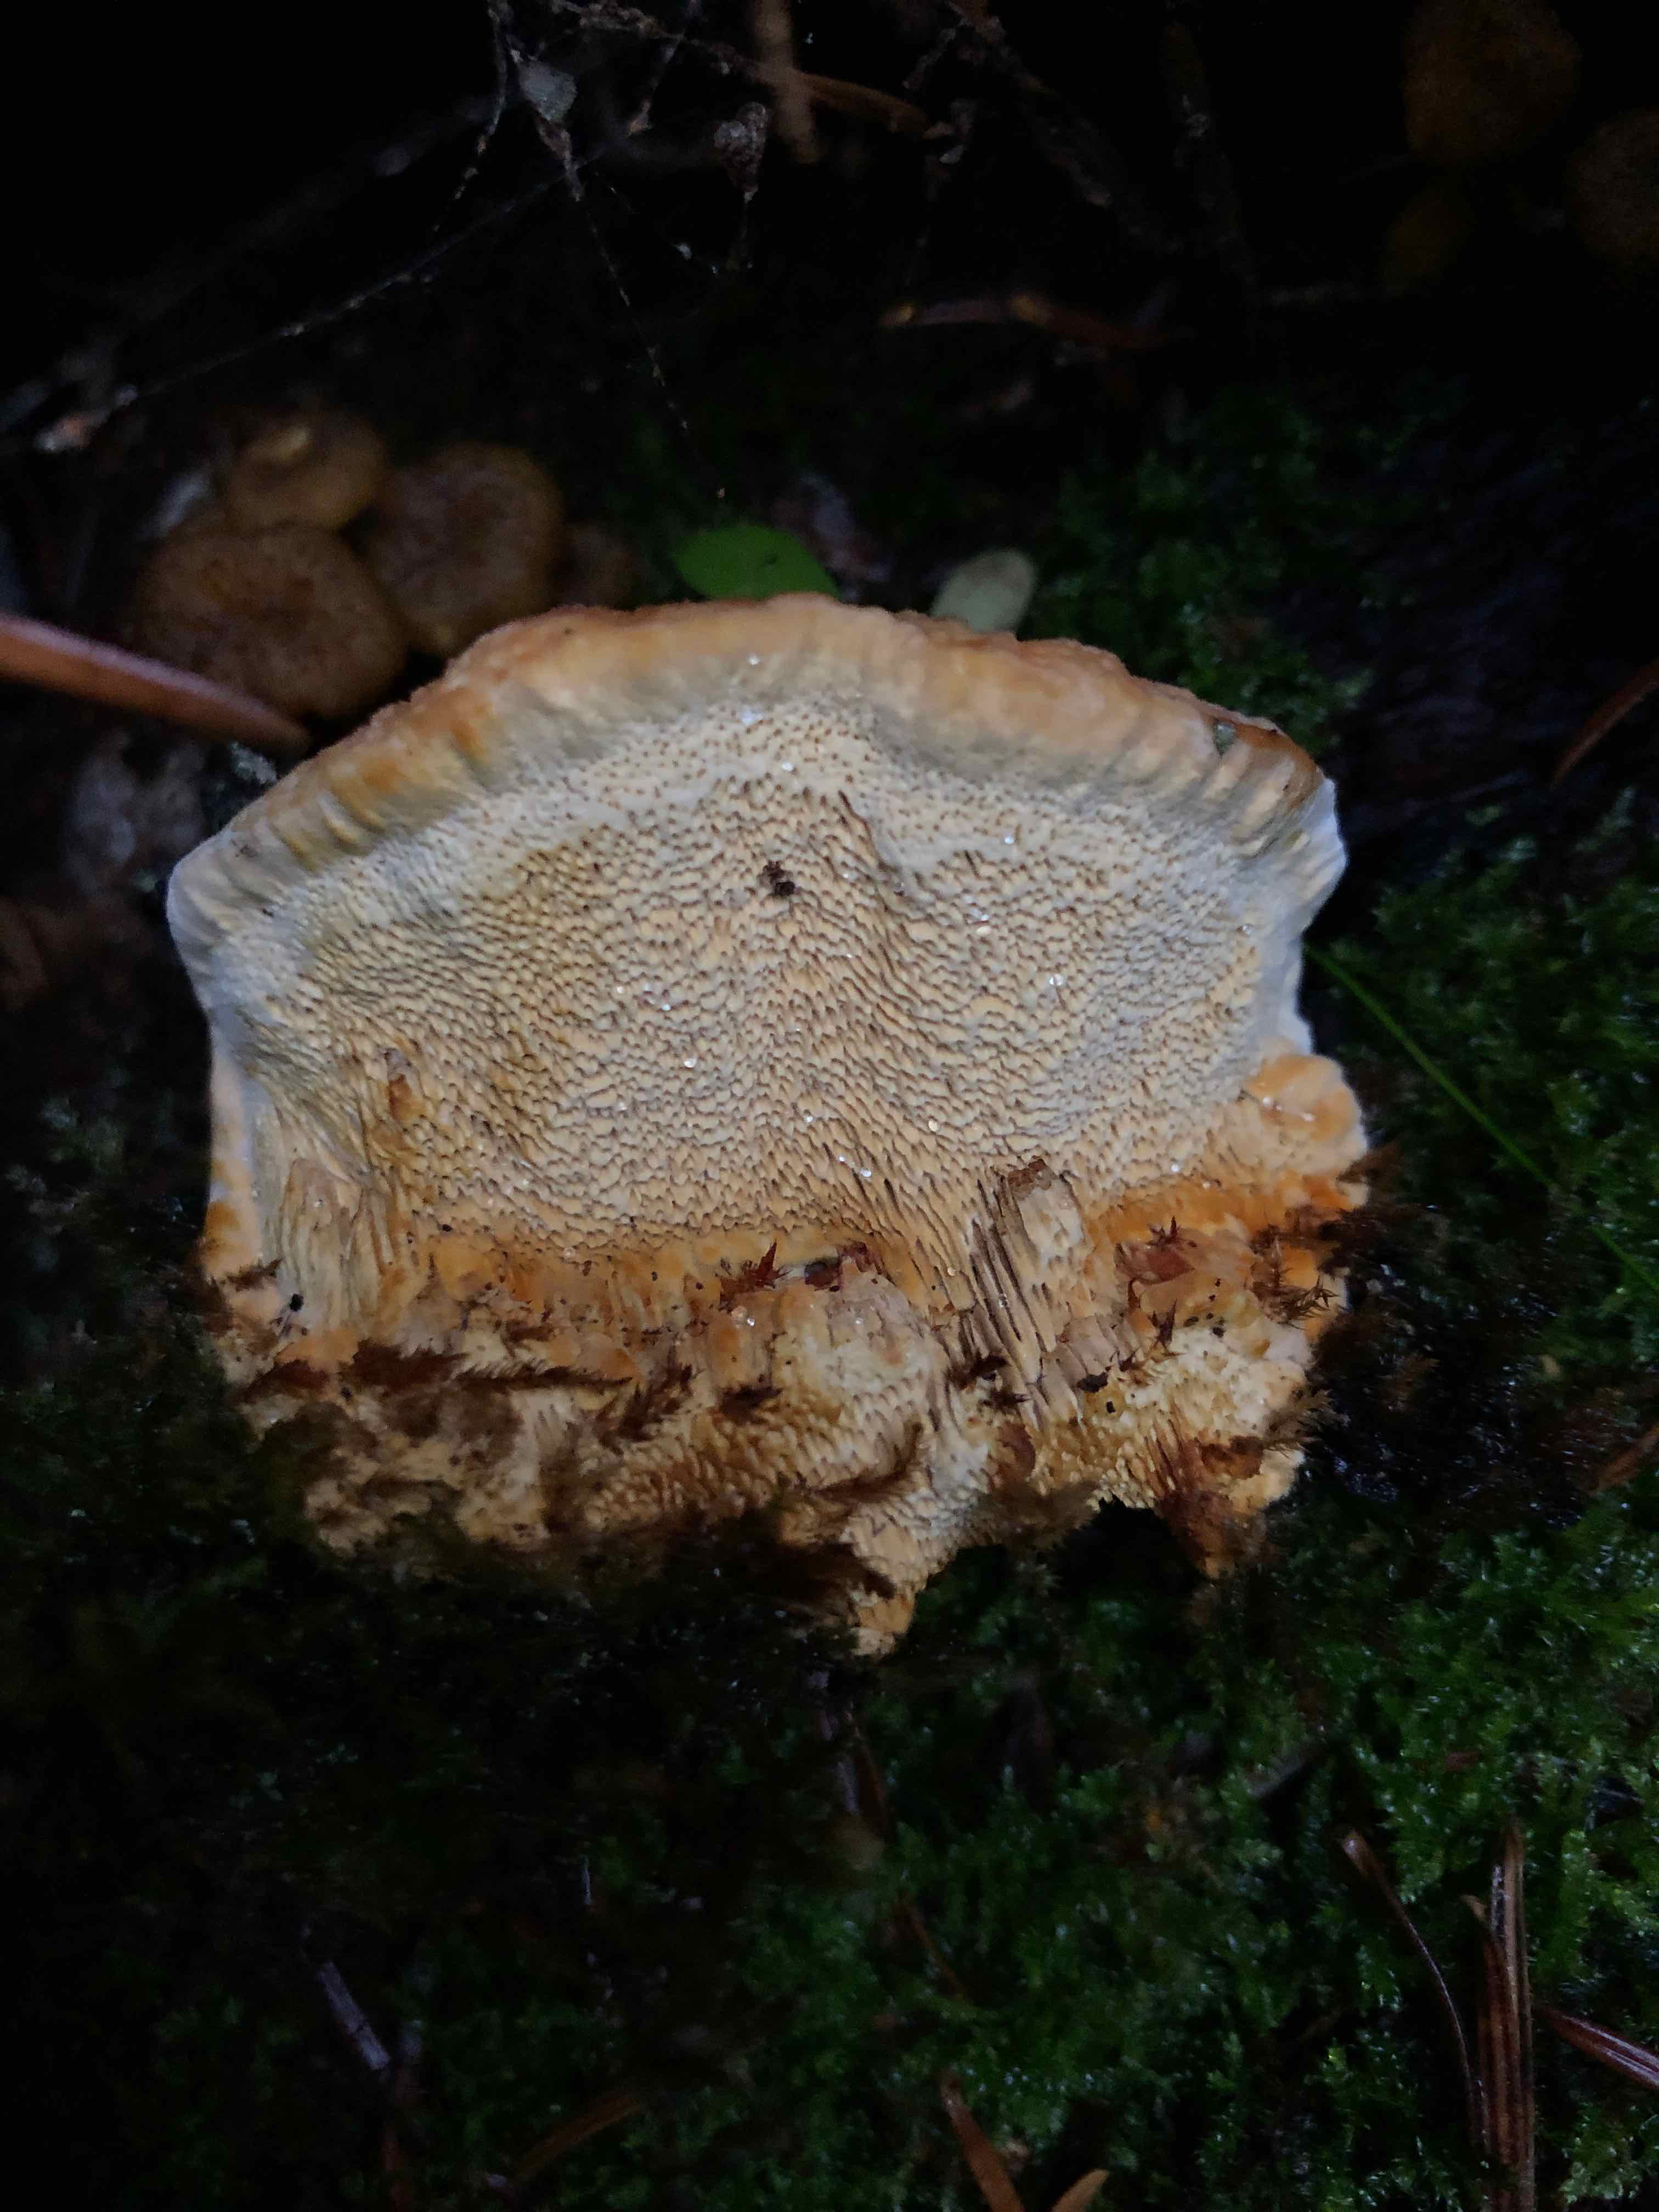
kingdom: Fungi
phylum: Basidiomycota
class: Agaricomycetes
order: Gloeophyllales
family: Gloeophyllaceae
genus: Gloeophyllum
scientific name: Gloeophyllum odoratum
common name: duftende korkhat
